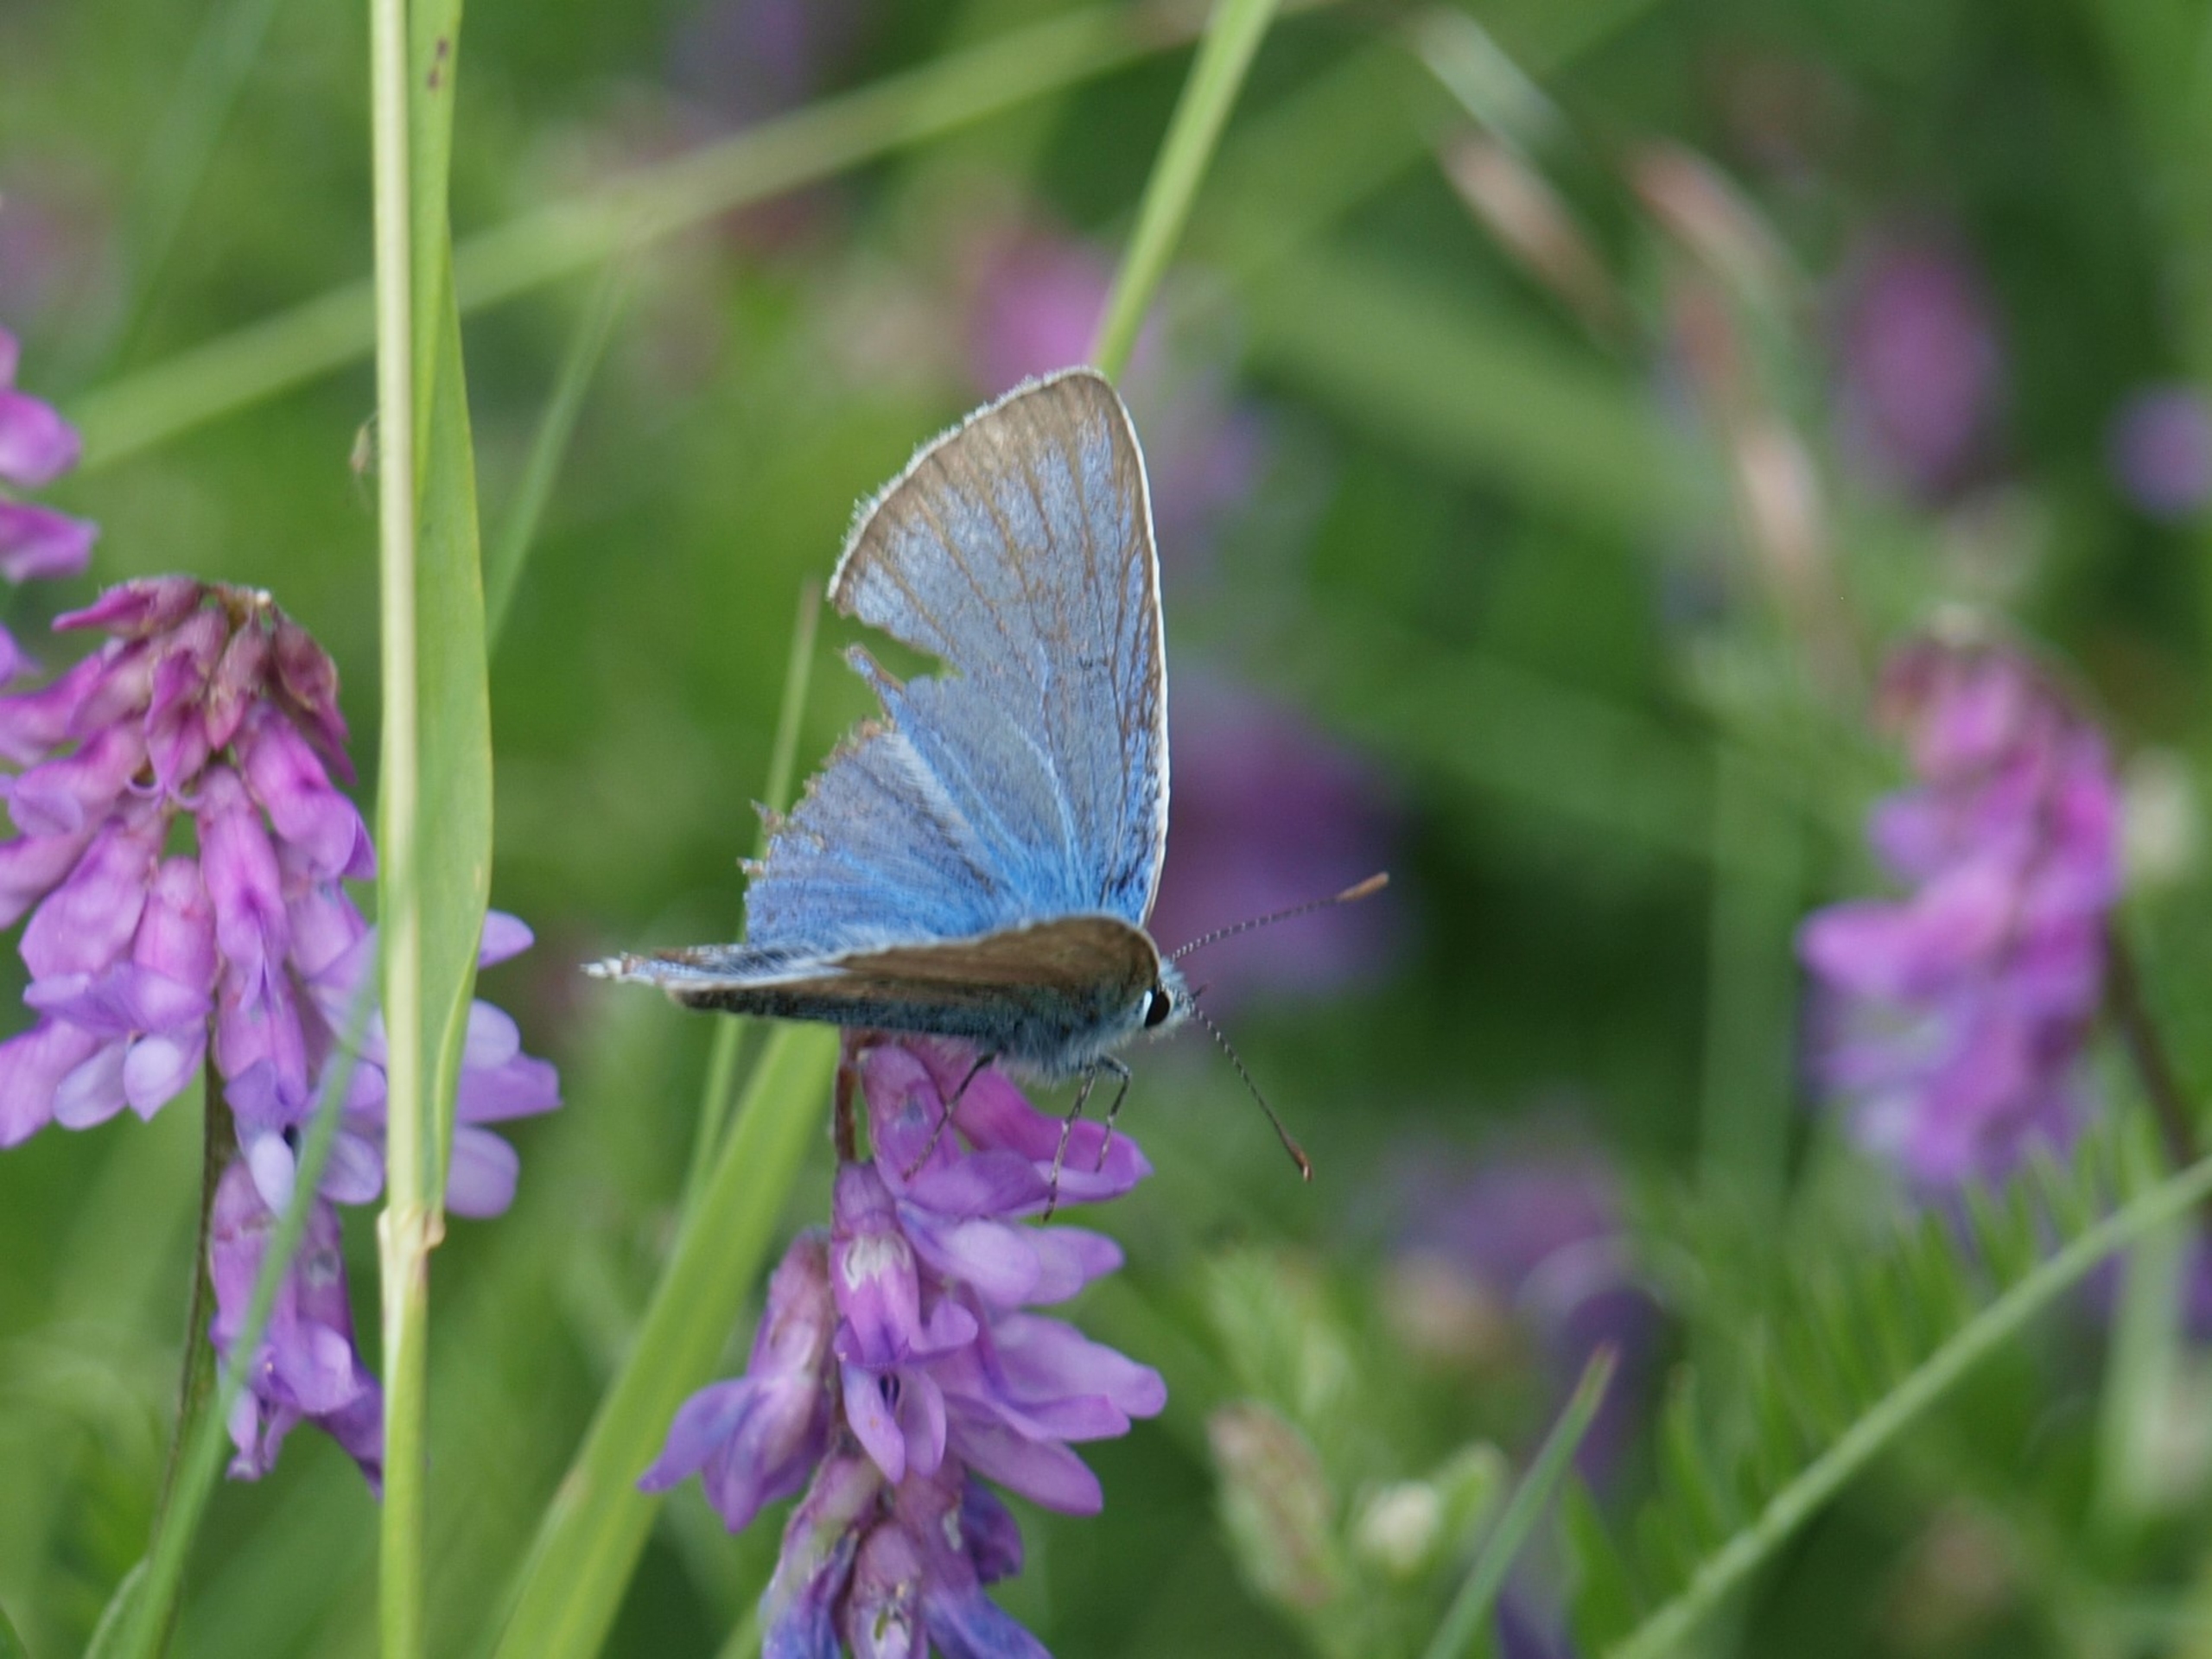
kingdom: Animalia
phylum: Arthropoda
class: Insecta
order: Lepidoptera
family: Lycaenidae
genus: Plebejus
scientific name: Plebejus amanda
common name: Isblåfugl
